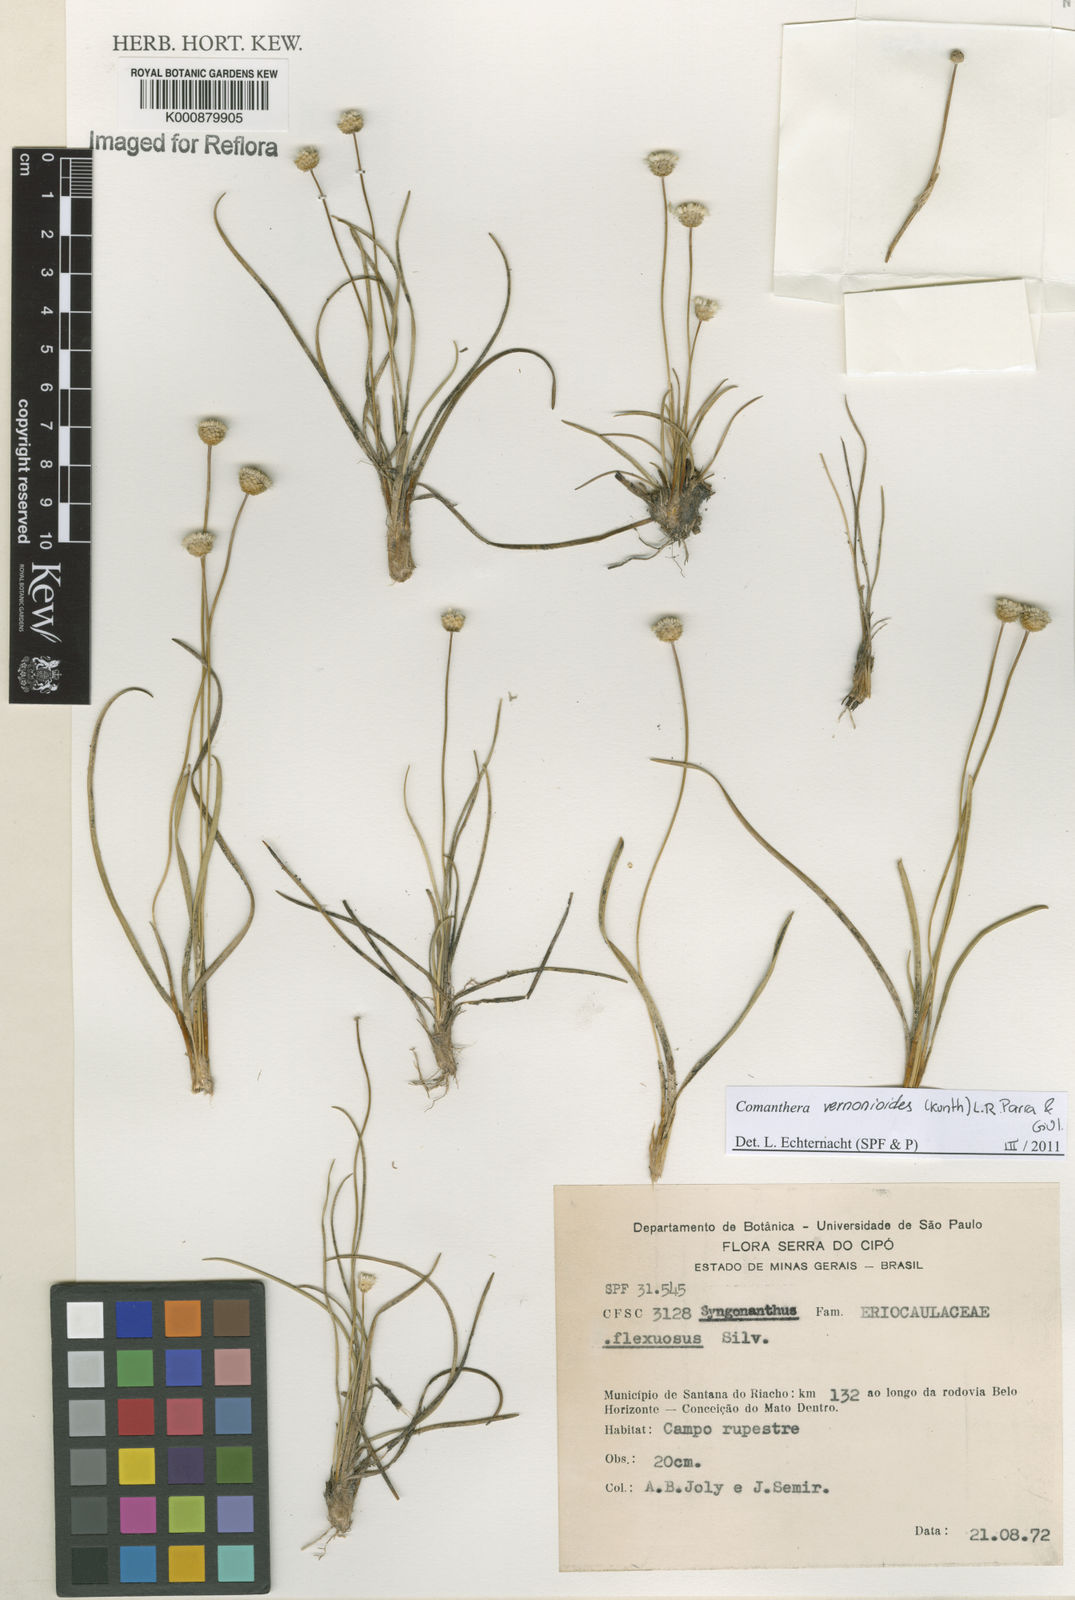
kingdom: Plantae
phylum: Tracheophyta
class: Liliopsida
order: Poales
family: Eriocaulaceae
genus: Comanthera
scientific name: Comanthera centauroides
